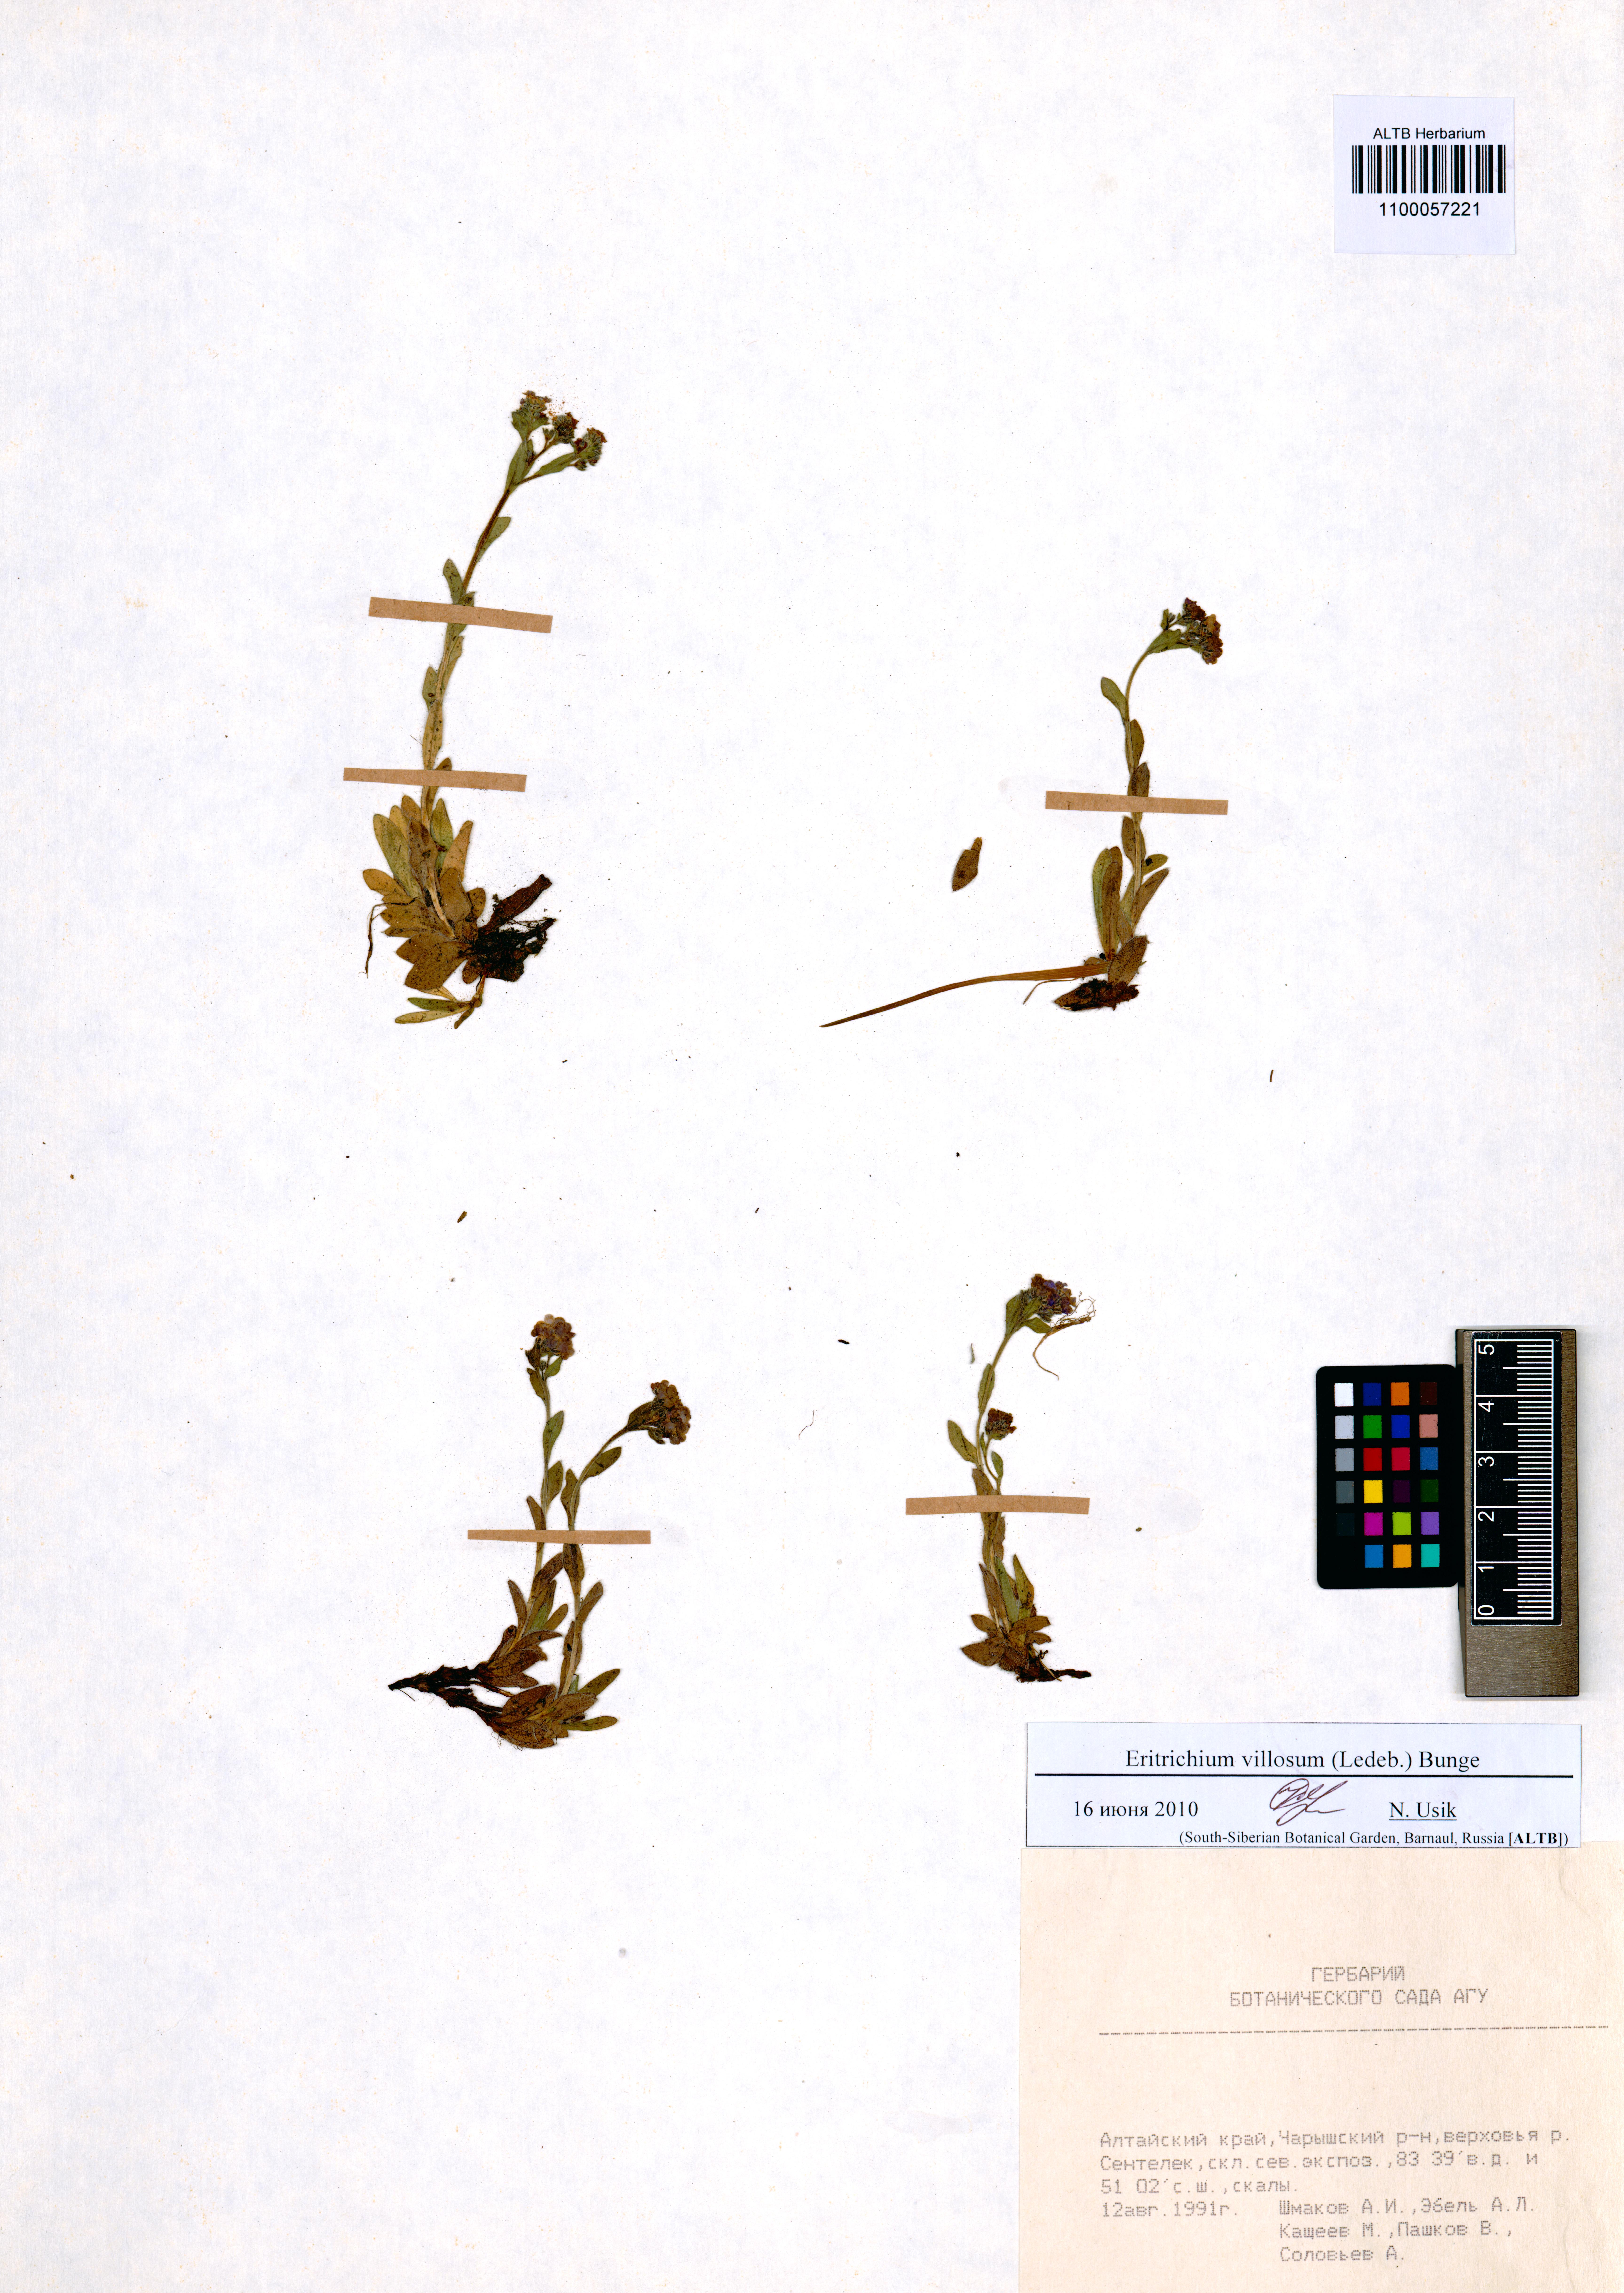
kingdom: Plantae
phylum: Tracheophyta
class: Magnoliopsida
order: Boraginales
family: Boraginaceae
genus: Eritrichium
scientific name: Eritrichium villosum
